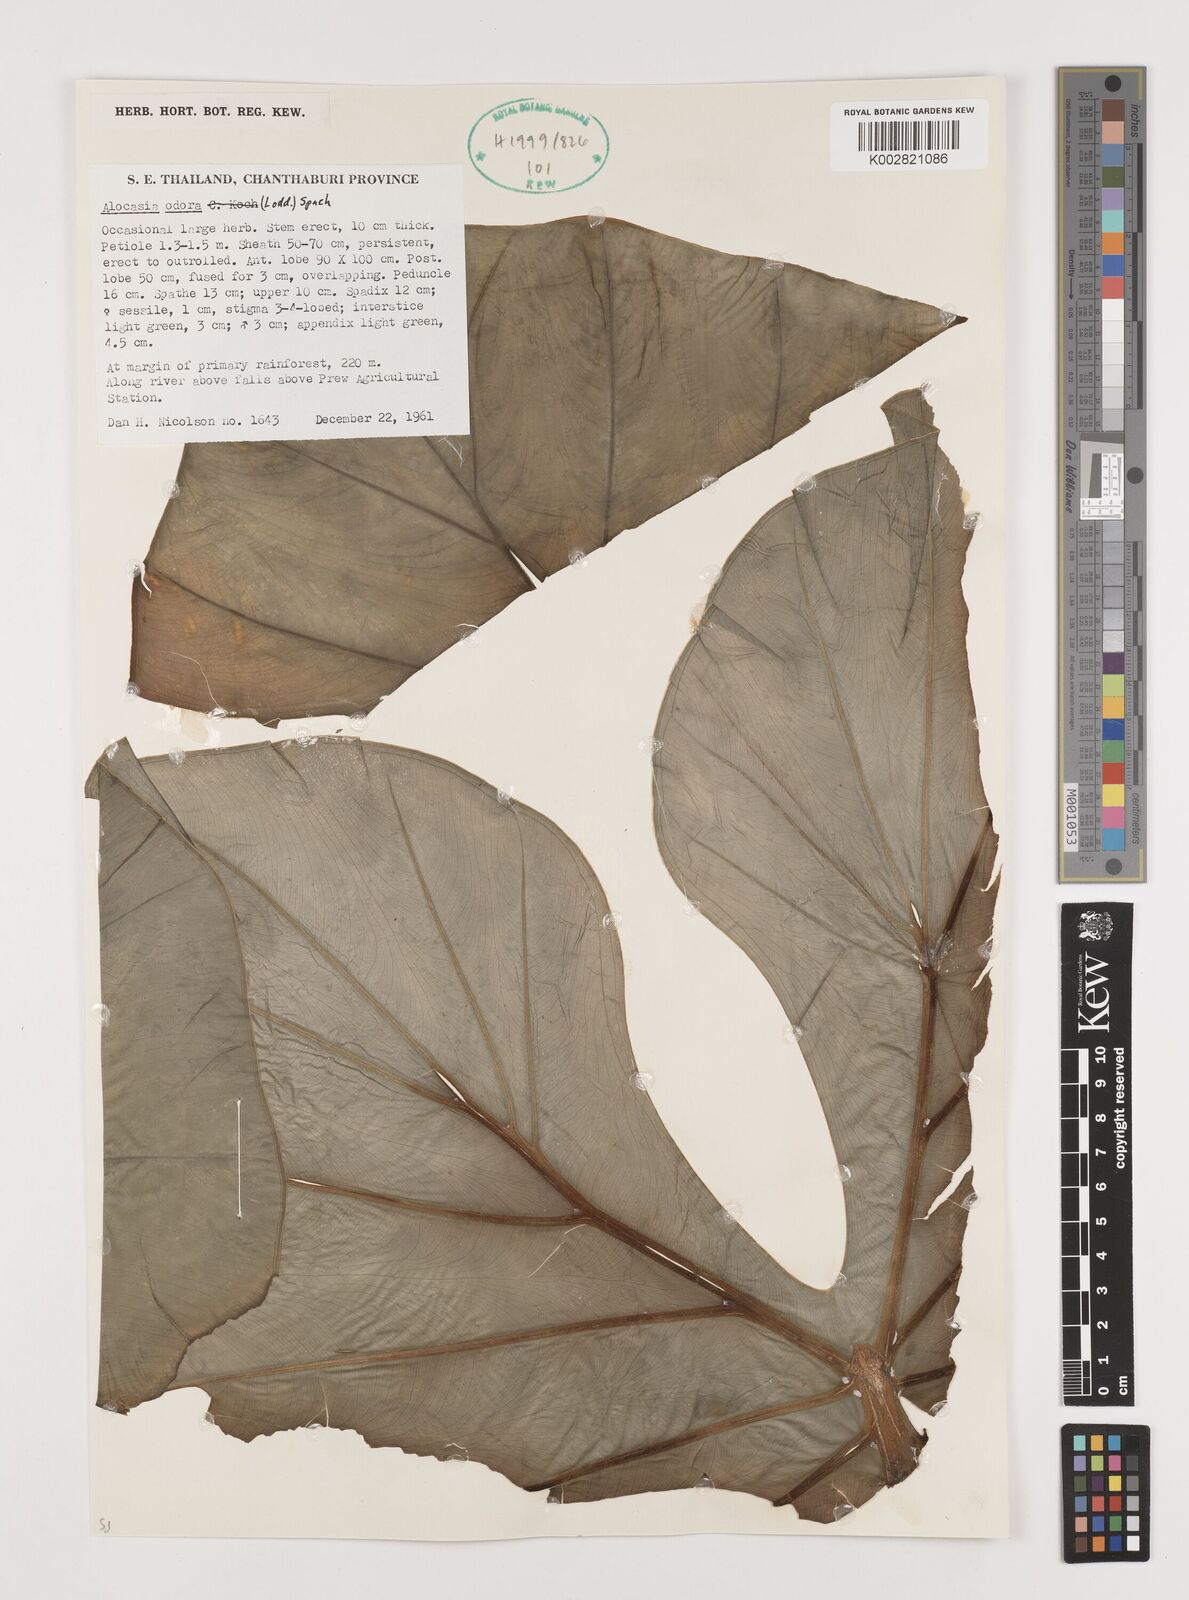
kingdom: Plantae
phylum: Tracheophyta
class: Liliopsida
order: Alismatales
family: Araceae
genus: Alocasia
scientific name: Alocasia
